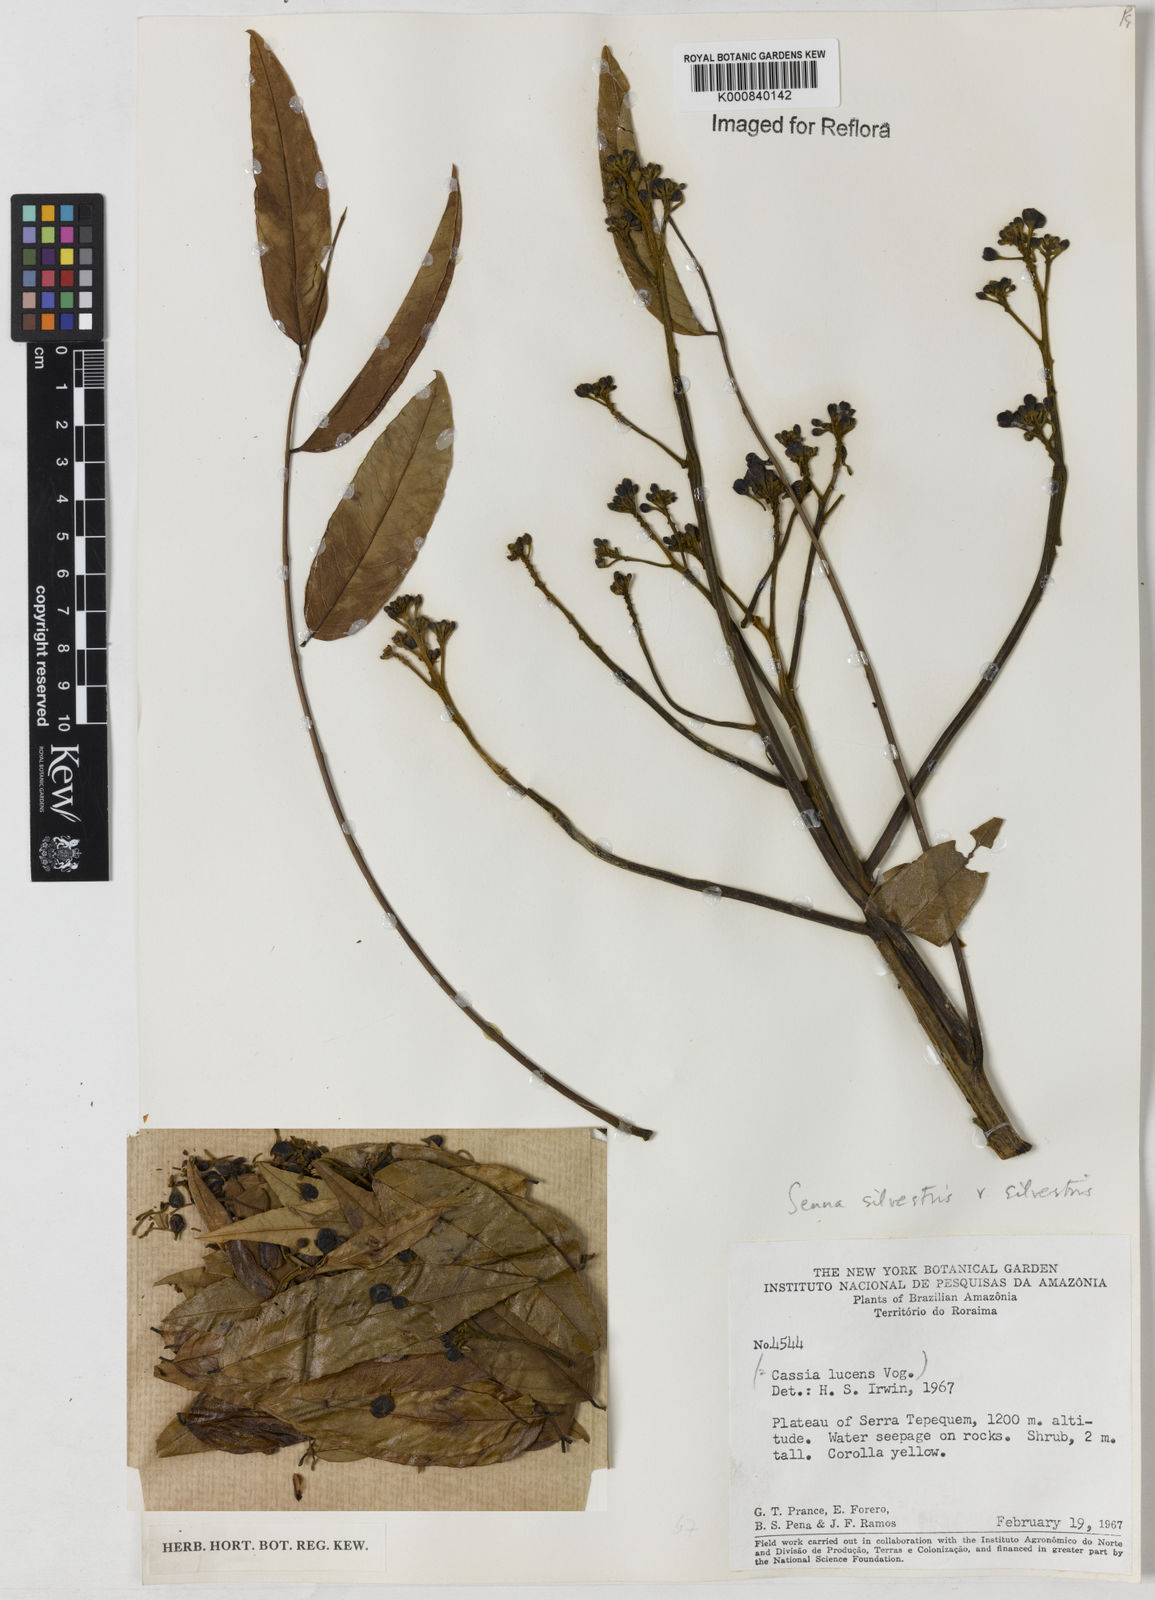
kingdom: Plantae
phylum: Tracheophyta
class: Magnoliopsida
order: Fabales
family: Fabaceae
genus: Senna
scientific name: Senna silvestris
